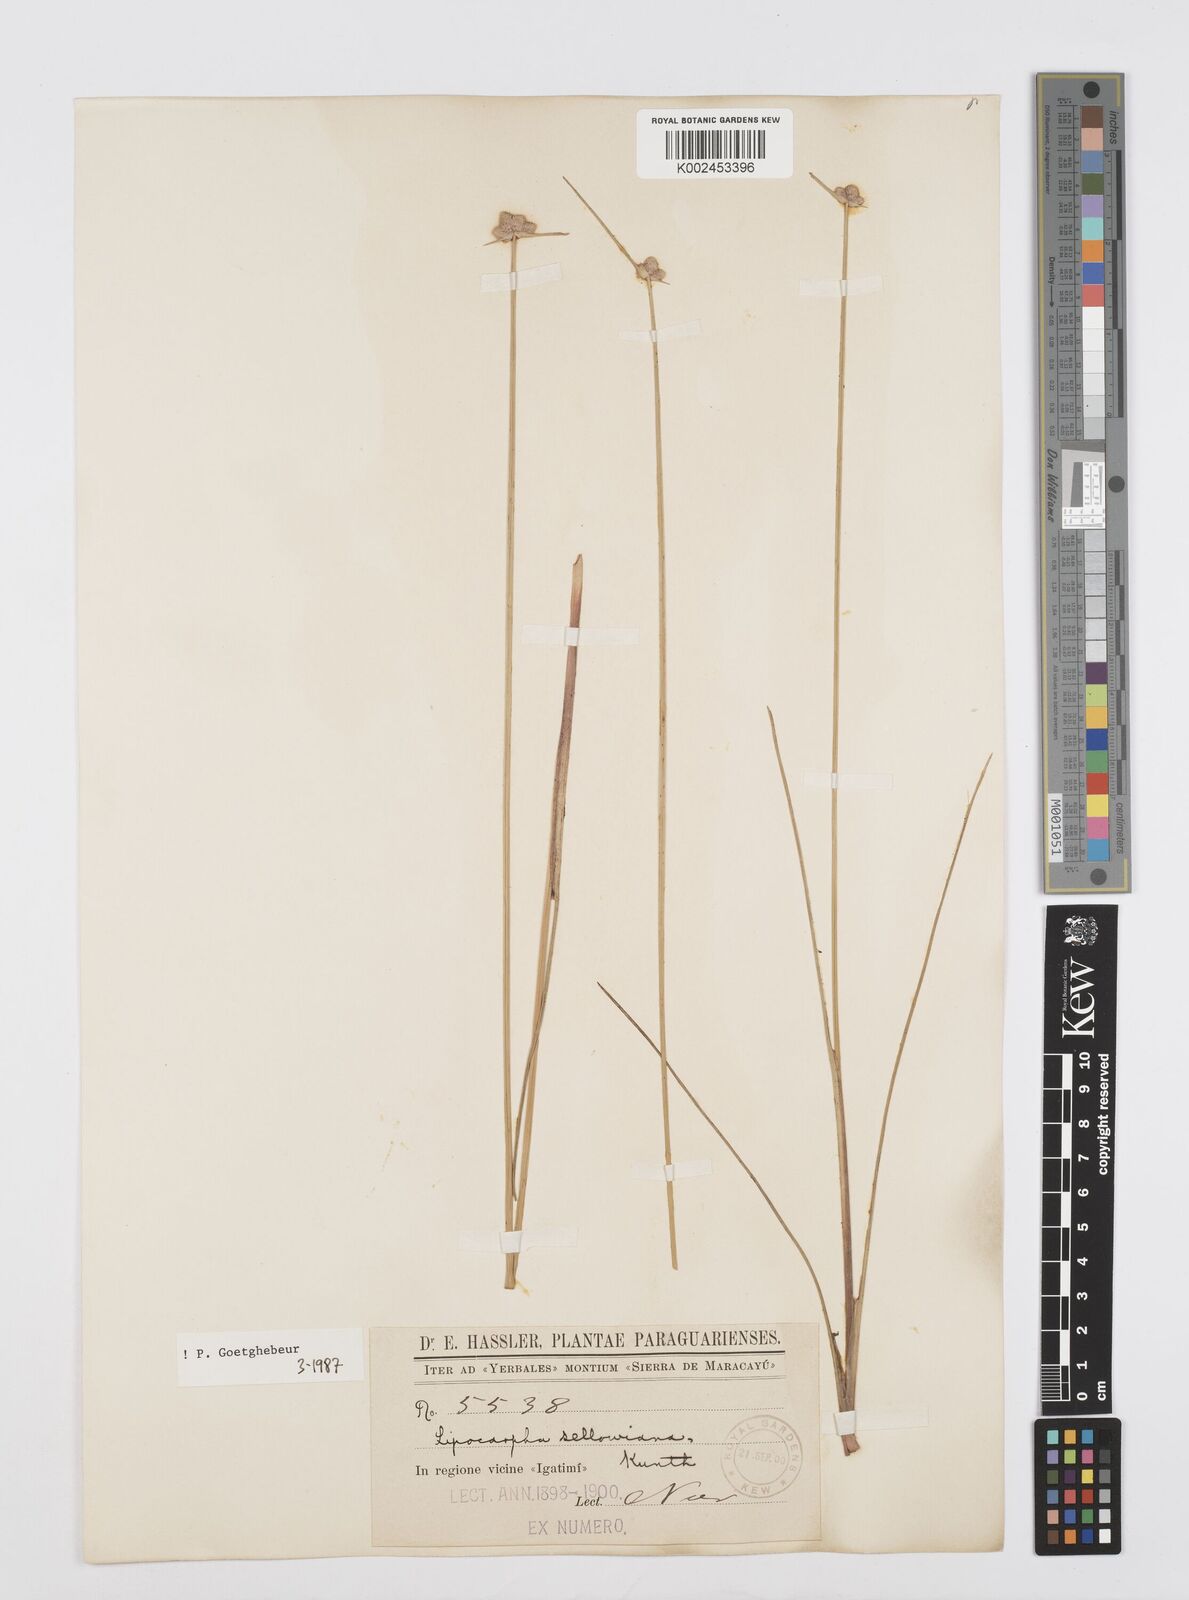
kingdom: Plantae
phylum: Tracheophyta
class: Liliopsida
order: Poales
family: Cyperaceae
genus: Cyperus
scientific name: Cyperus lanceolatus
